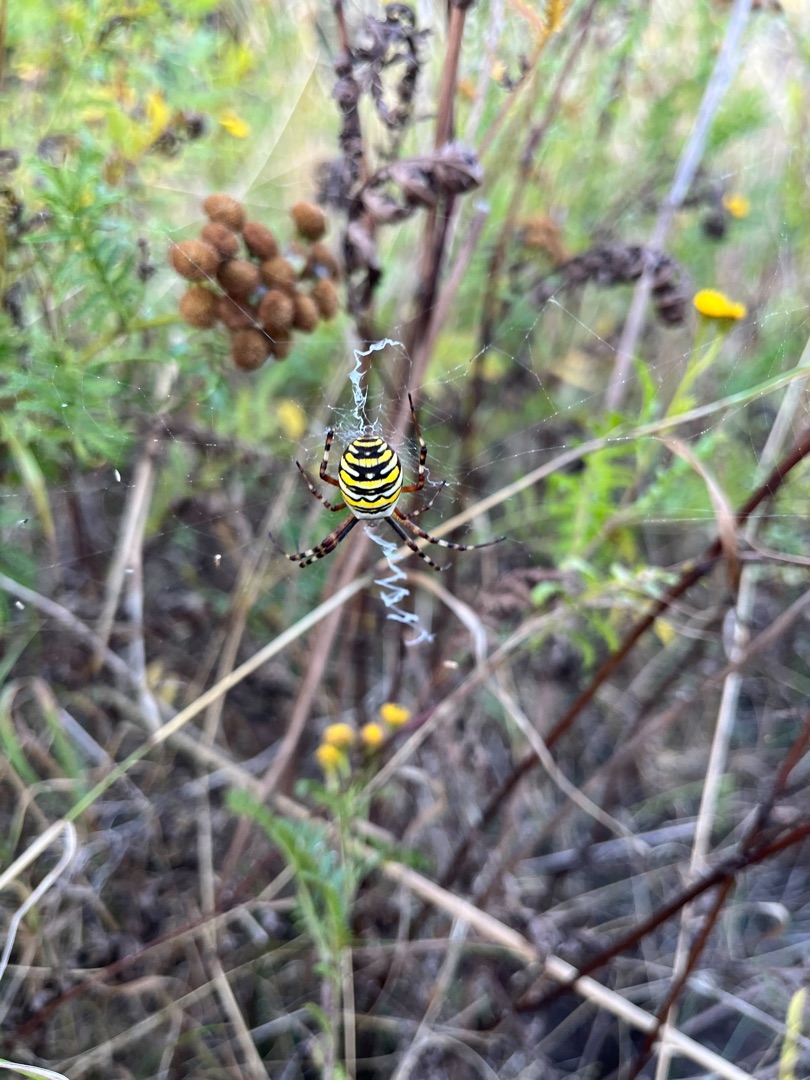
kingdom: Animalia
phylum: Arthropoda
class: Arachnida
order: Araneae
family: Araneidae
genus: Argiope
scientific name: Argiope bruennichi
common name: Hvepseedderkop
